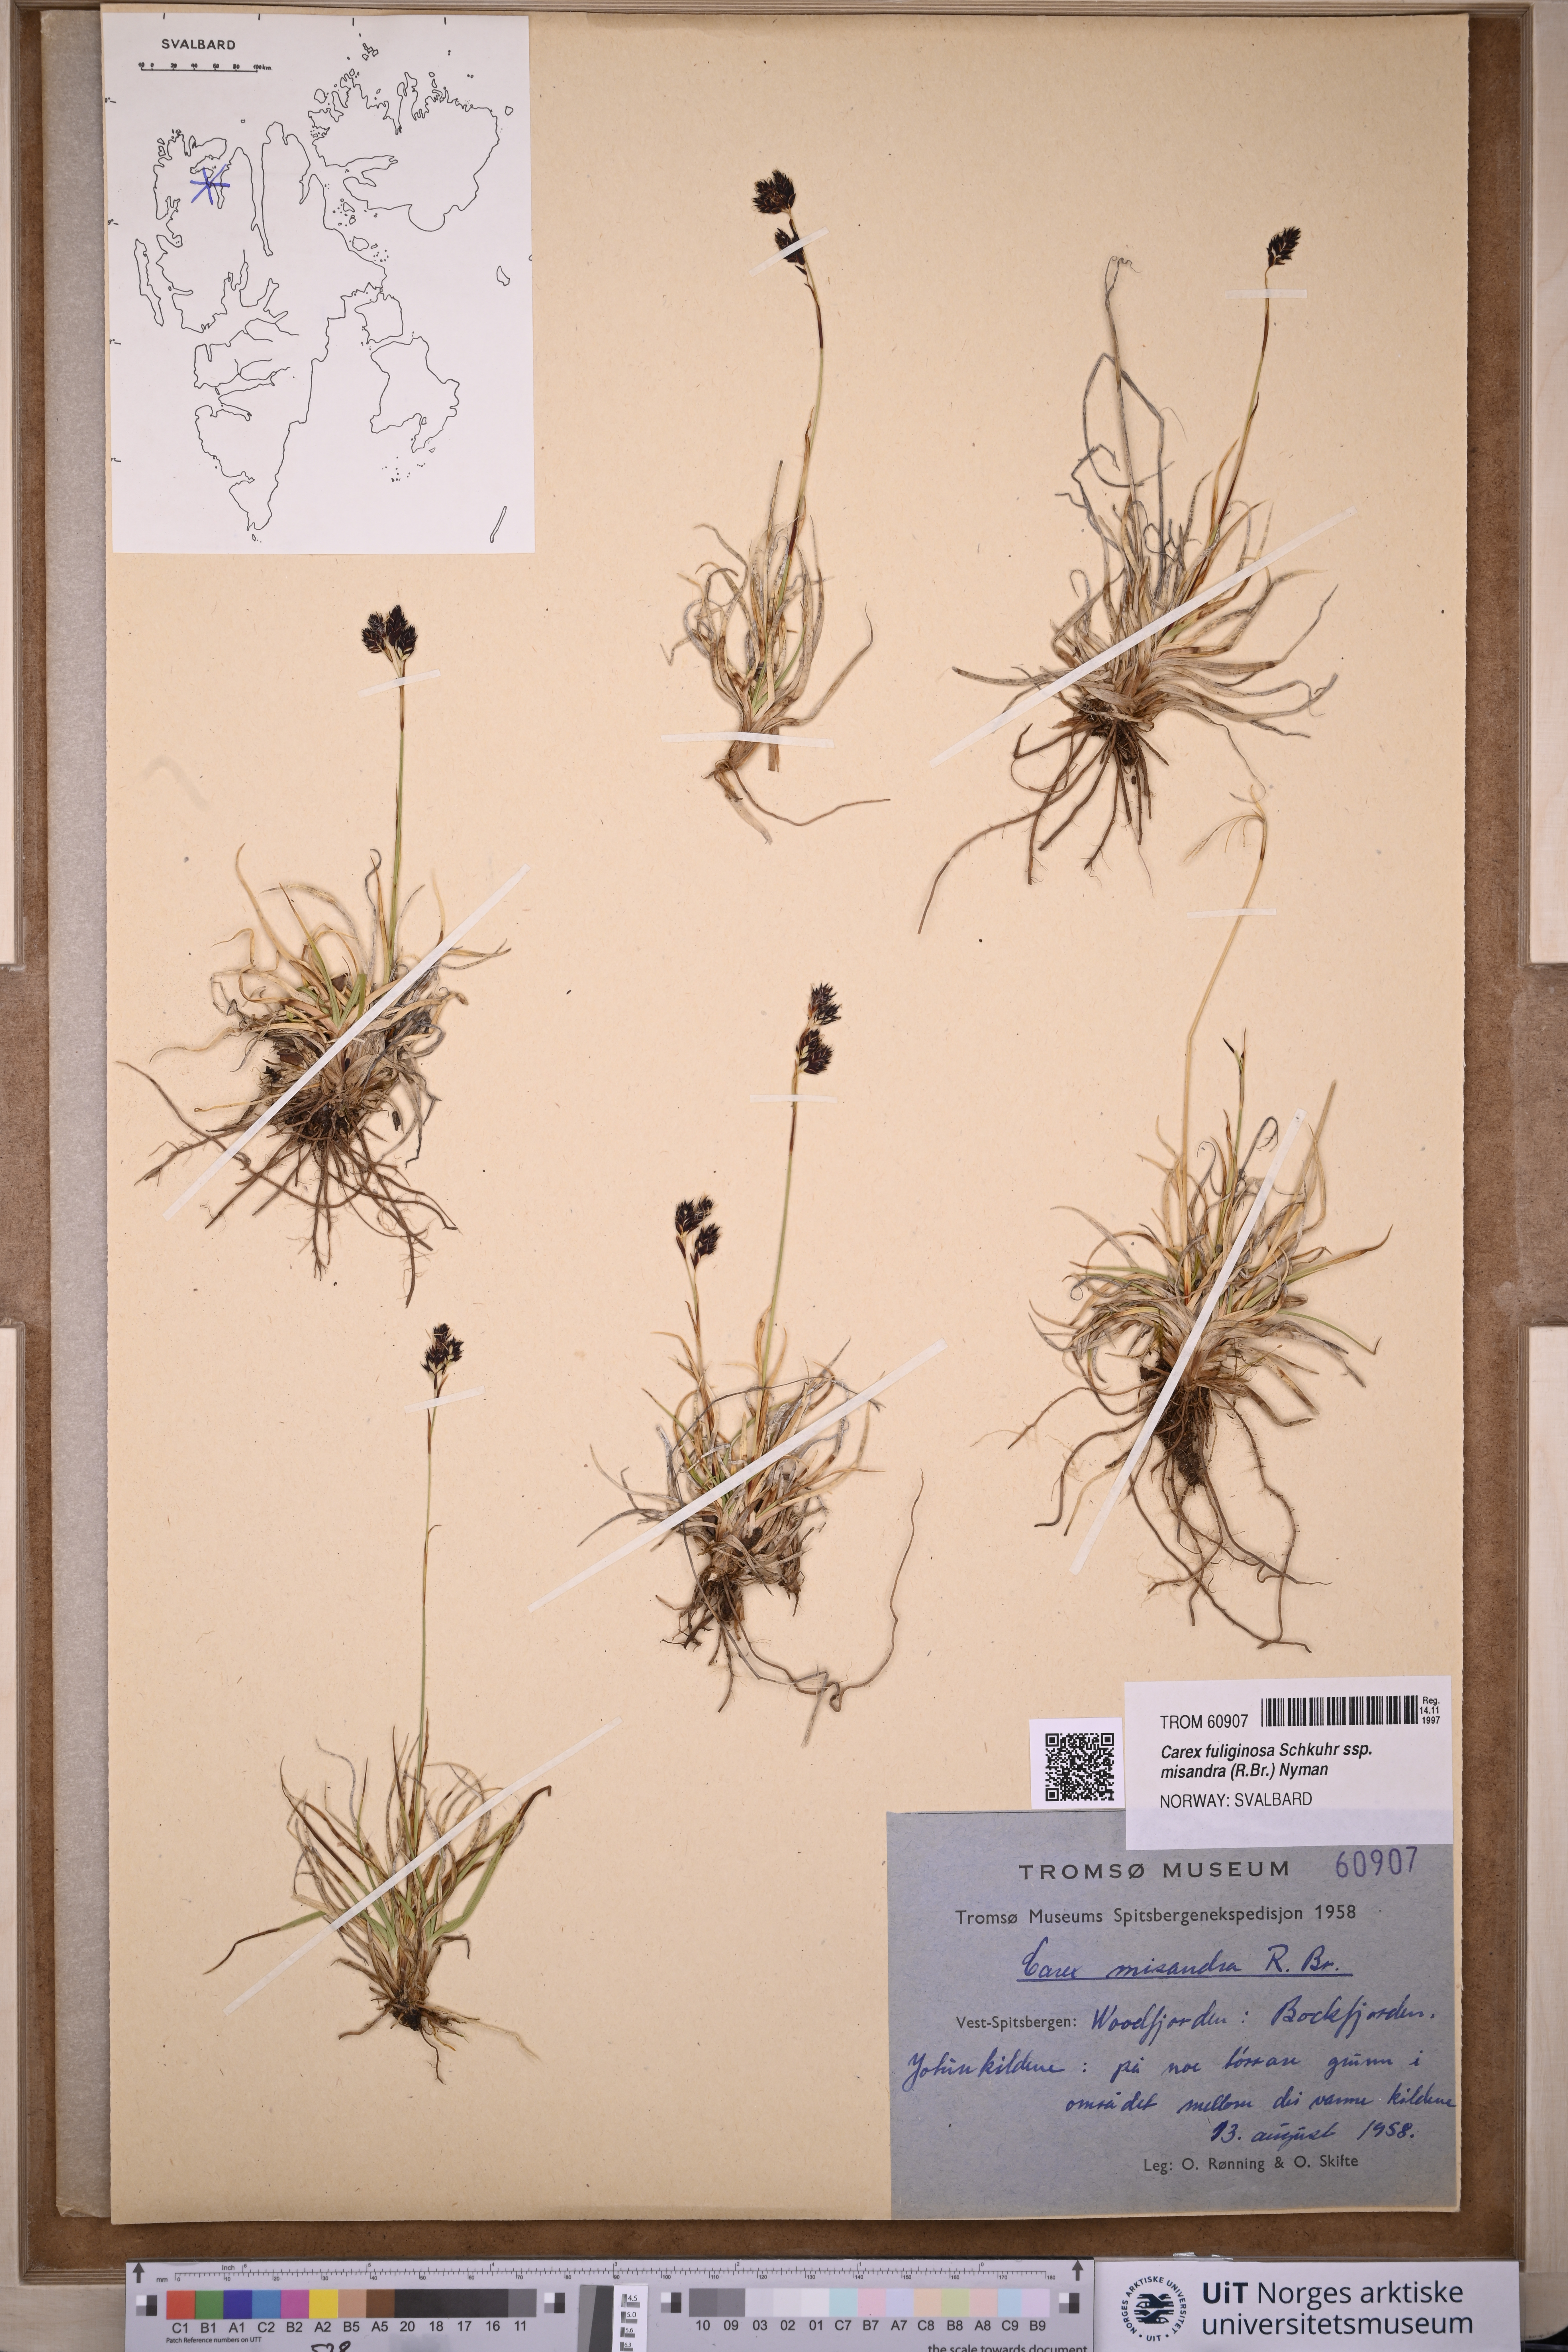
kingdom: Plantae
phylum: Tracheophyta
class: Liliopsida
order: Poales
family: Cyperaceae
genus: Carex
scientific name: Carex fuliginosa
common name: Few-flowered sedge
